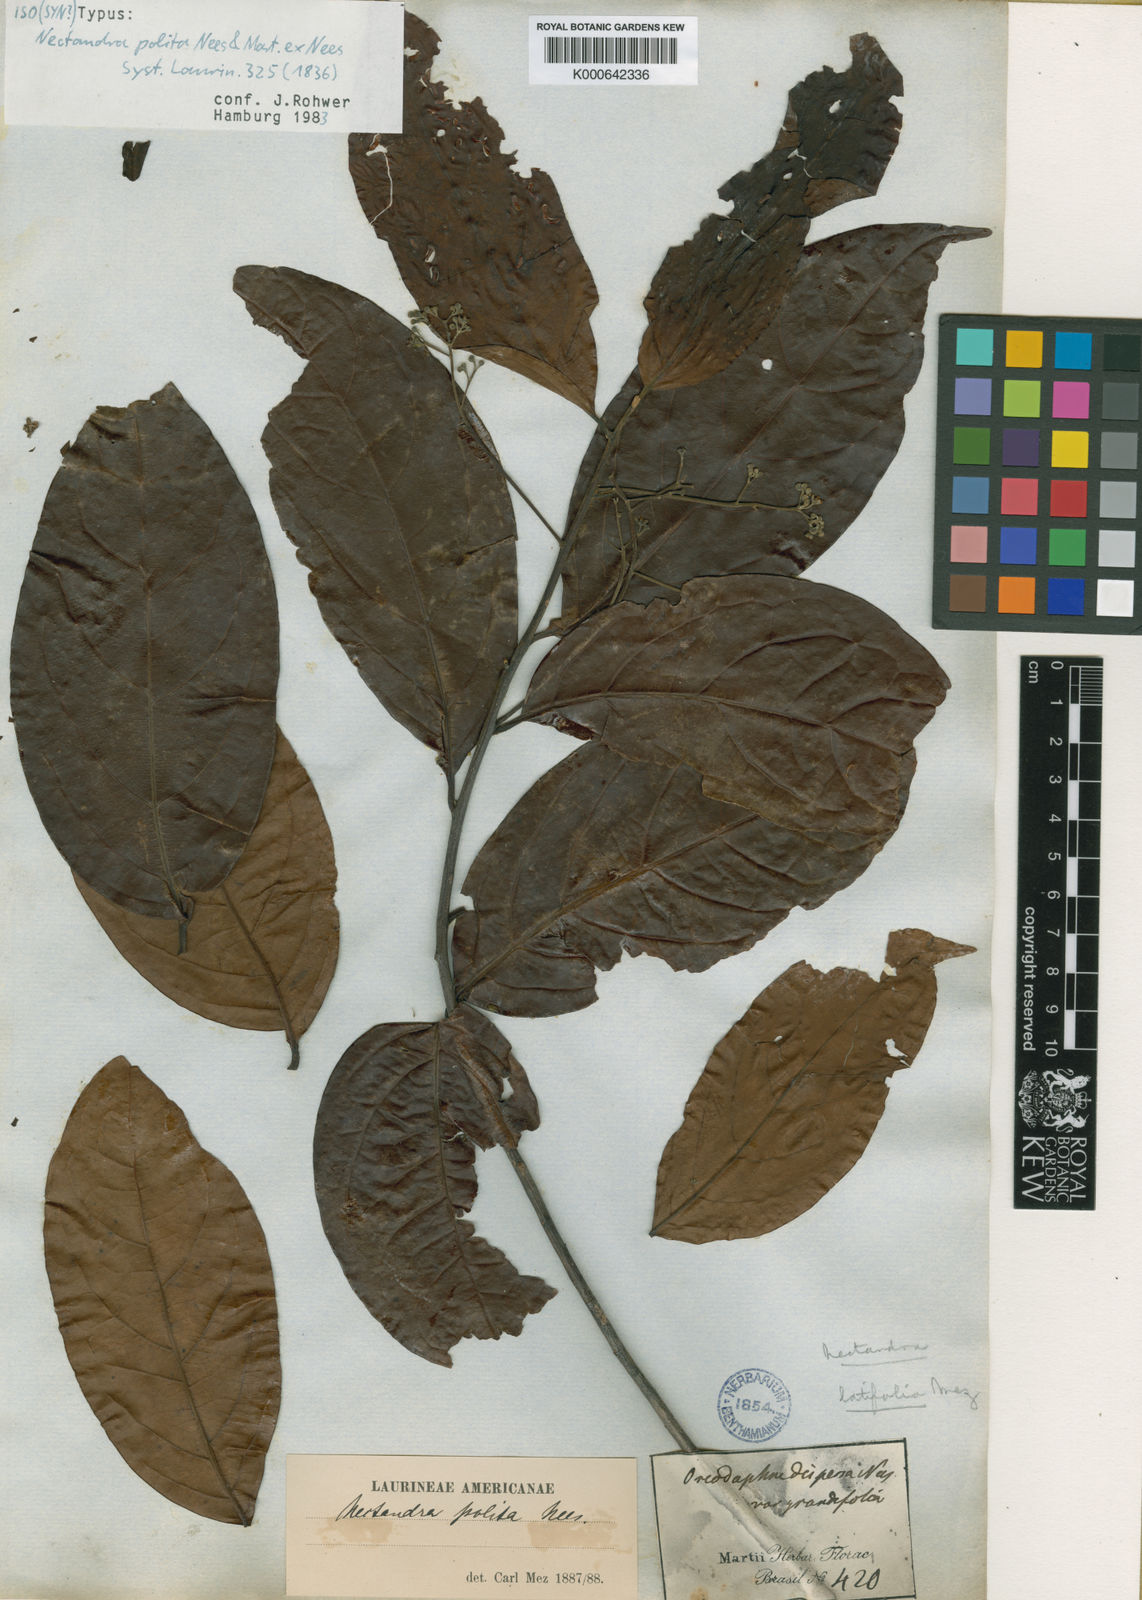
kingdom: Plantae
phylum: Tracheophyta
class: Magnoliopsida
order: Laurales
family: Lauraceae
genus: Damburneya
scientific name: Damburneya purpurea
